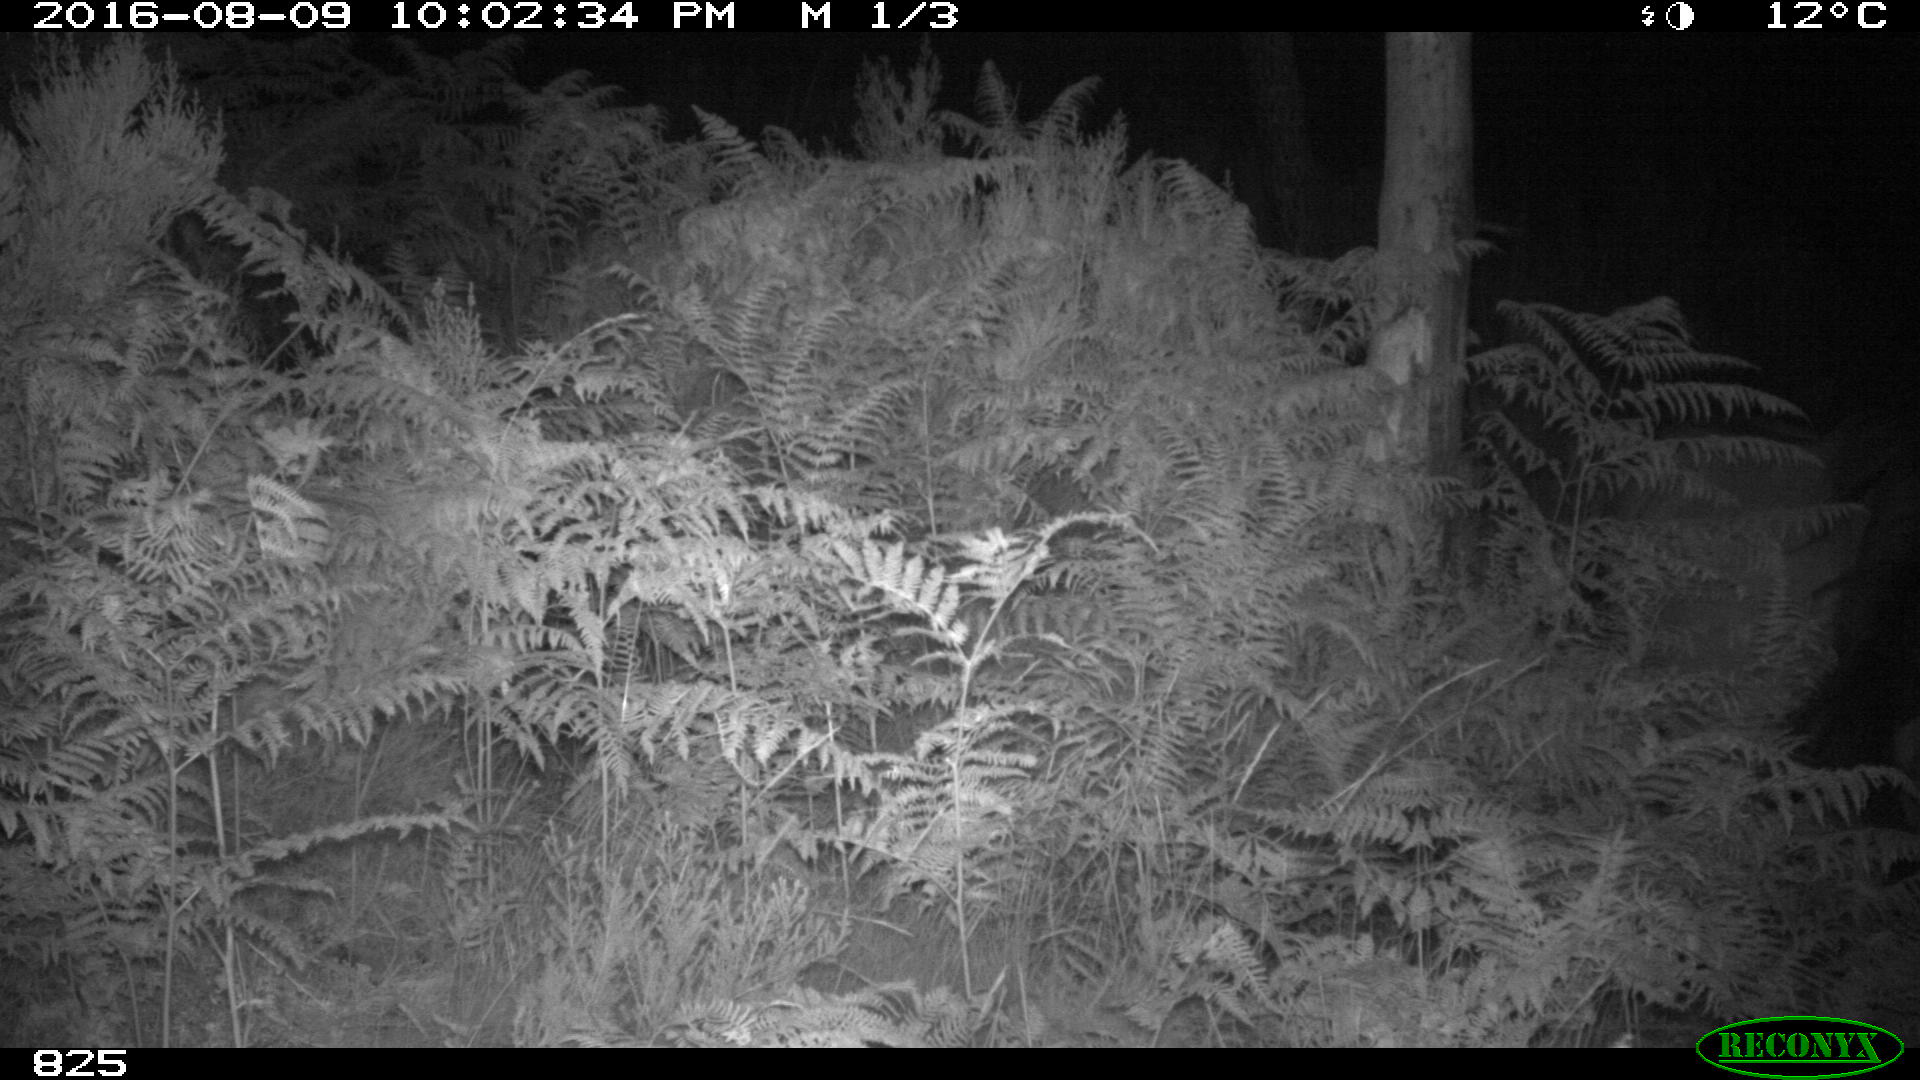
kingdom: Animalia
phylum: Chordata
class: Mammalia
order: Perissodactyla
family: Equidae
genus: Equus
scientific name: Equus caballus
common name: Horse
